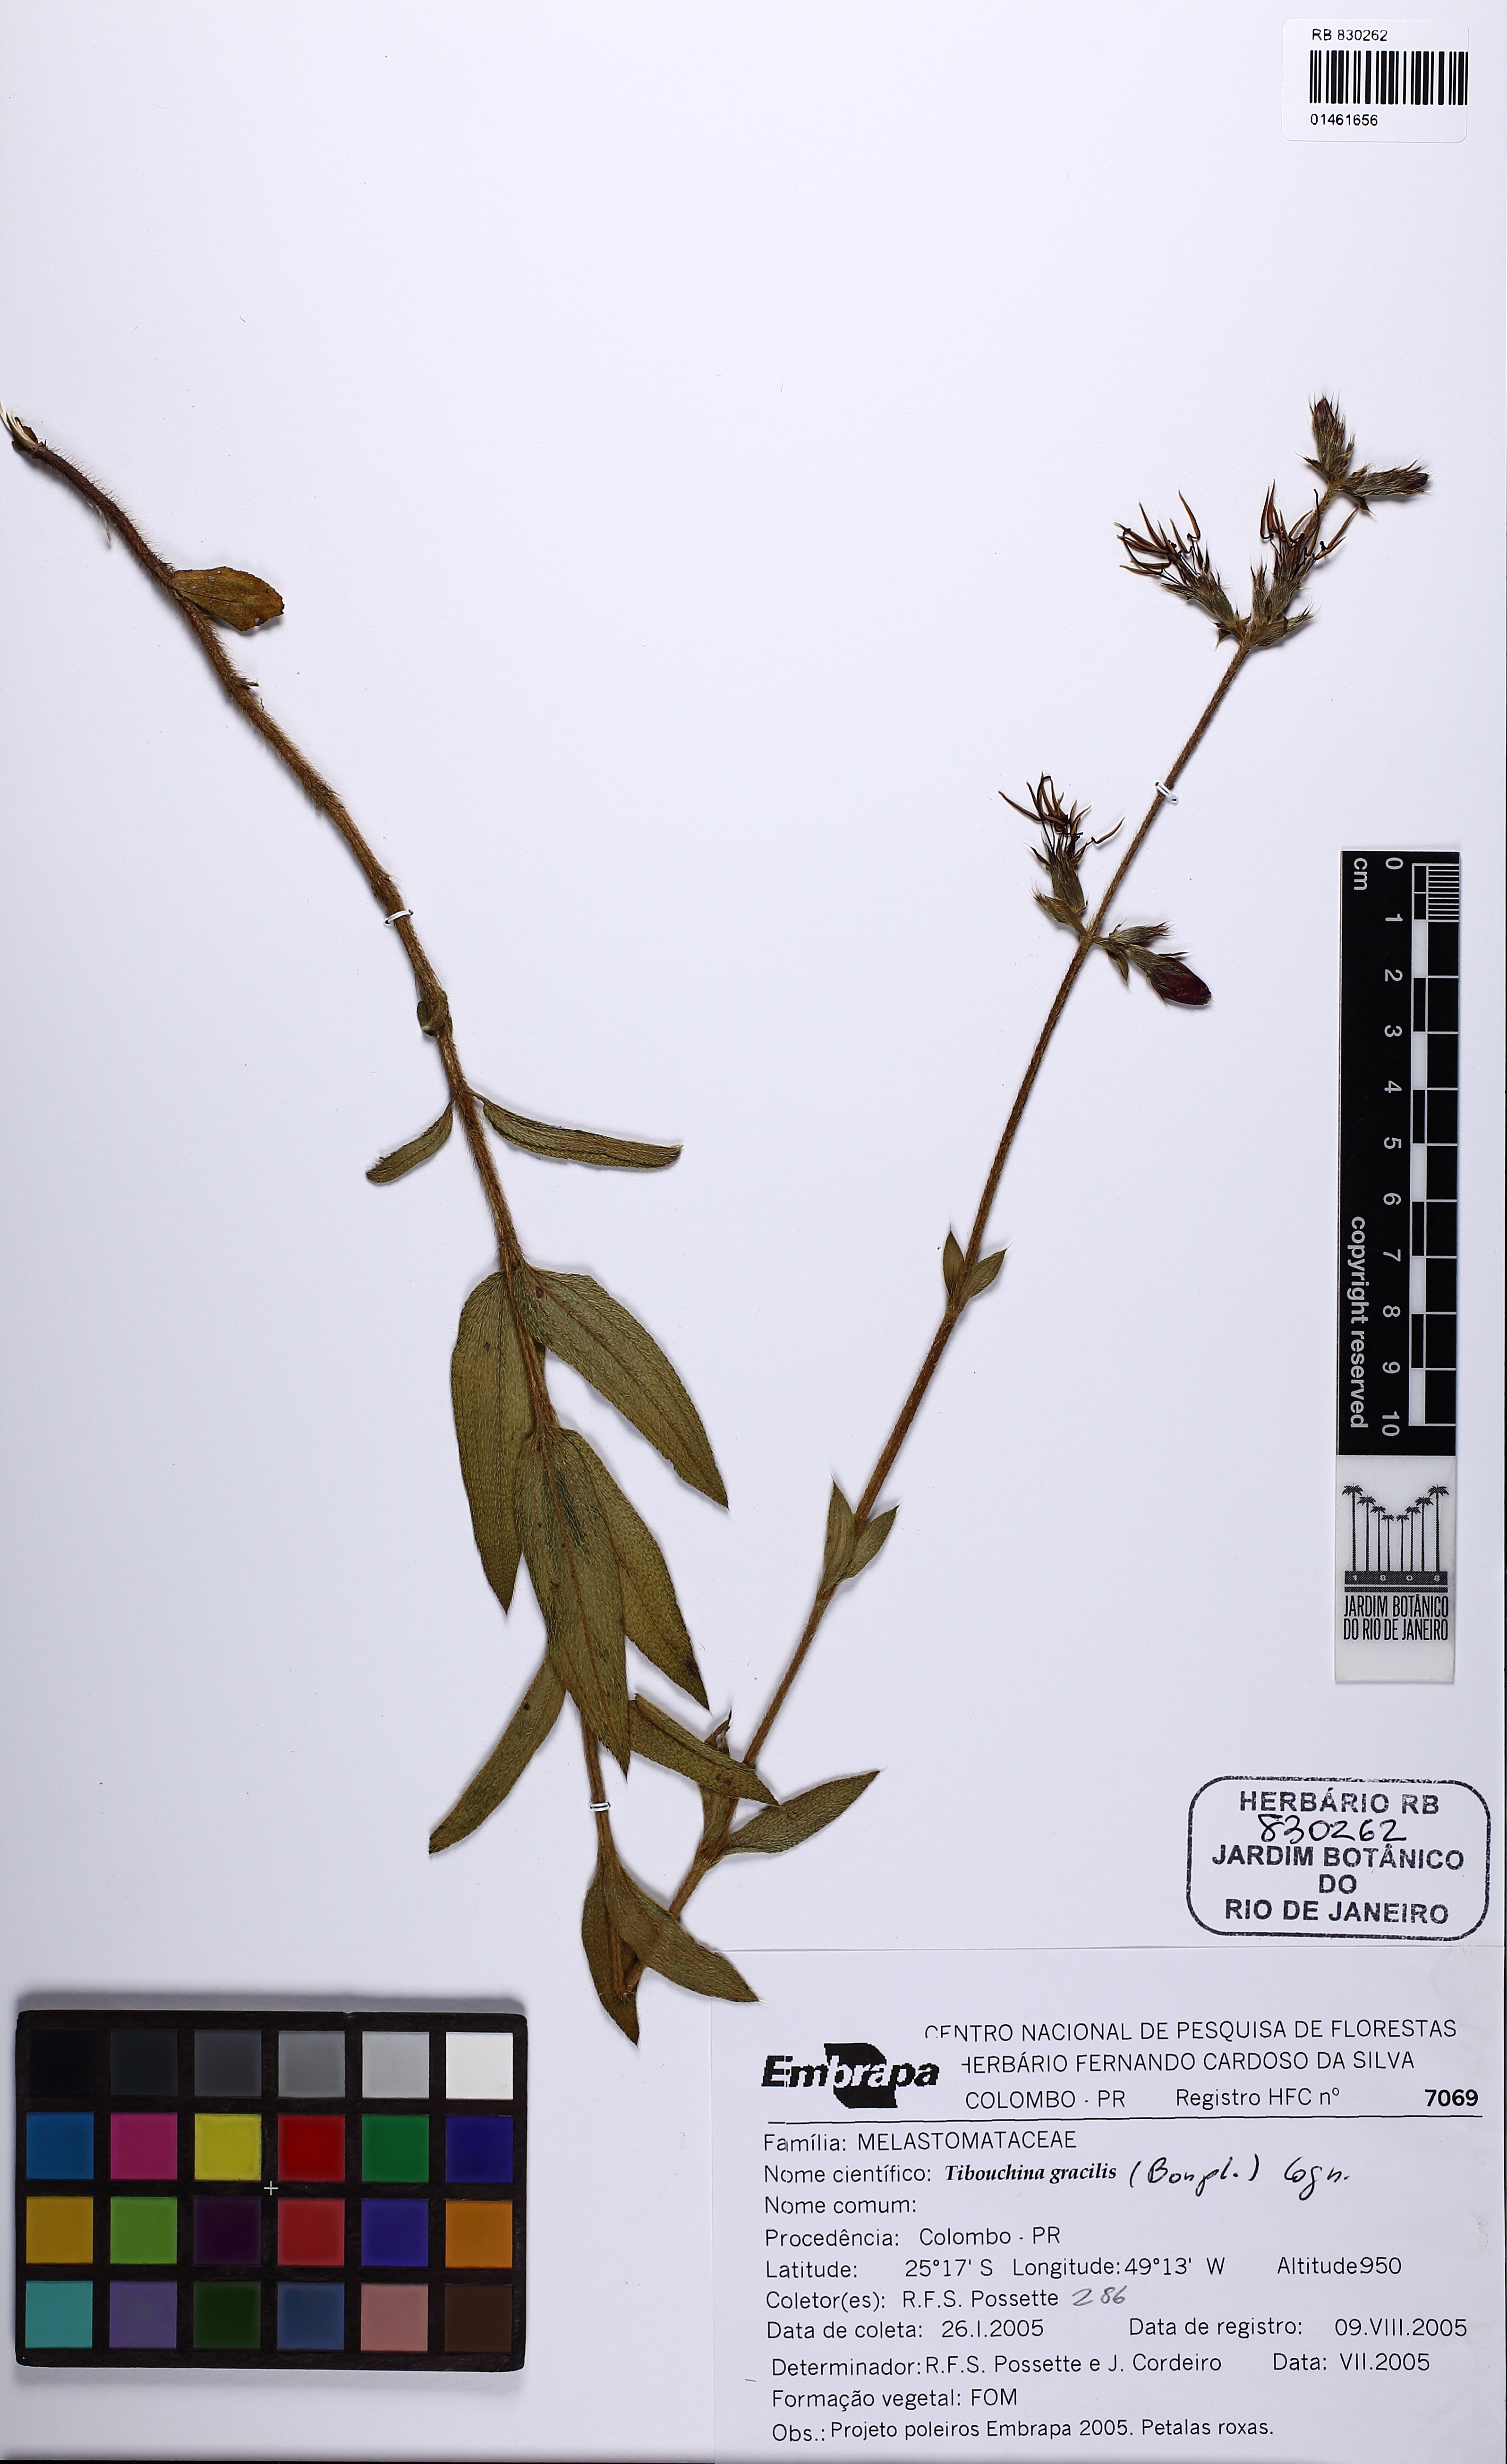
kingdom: Plantae
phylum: Tracheophyta
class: Magnoliopsida
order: Myrtales
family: Melastomataceae
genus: Chaetogastra
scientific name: Chaetogastra gracilis
